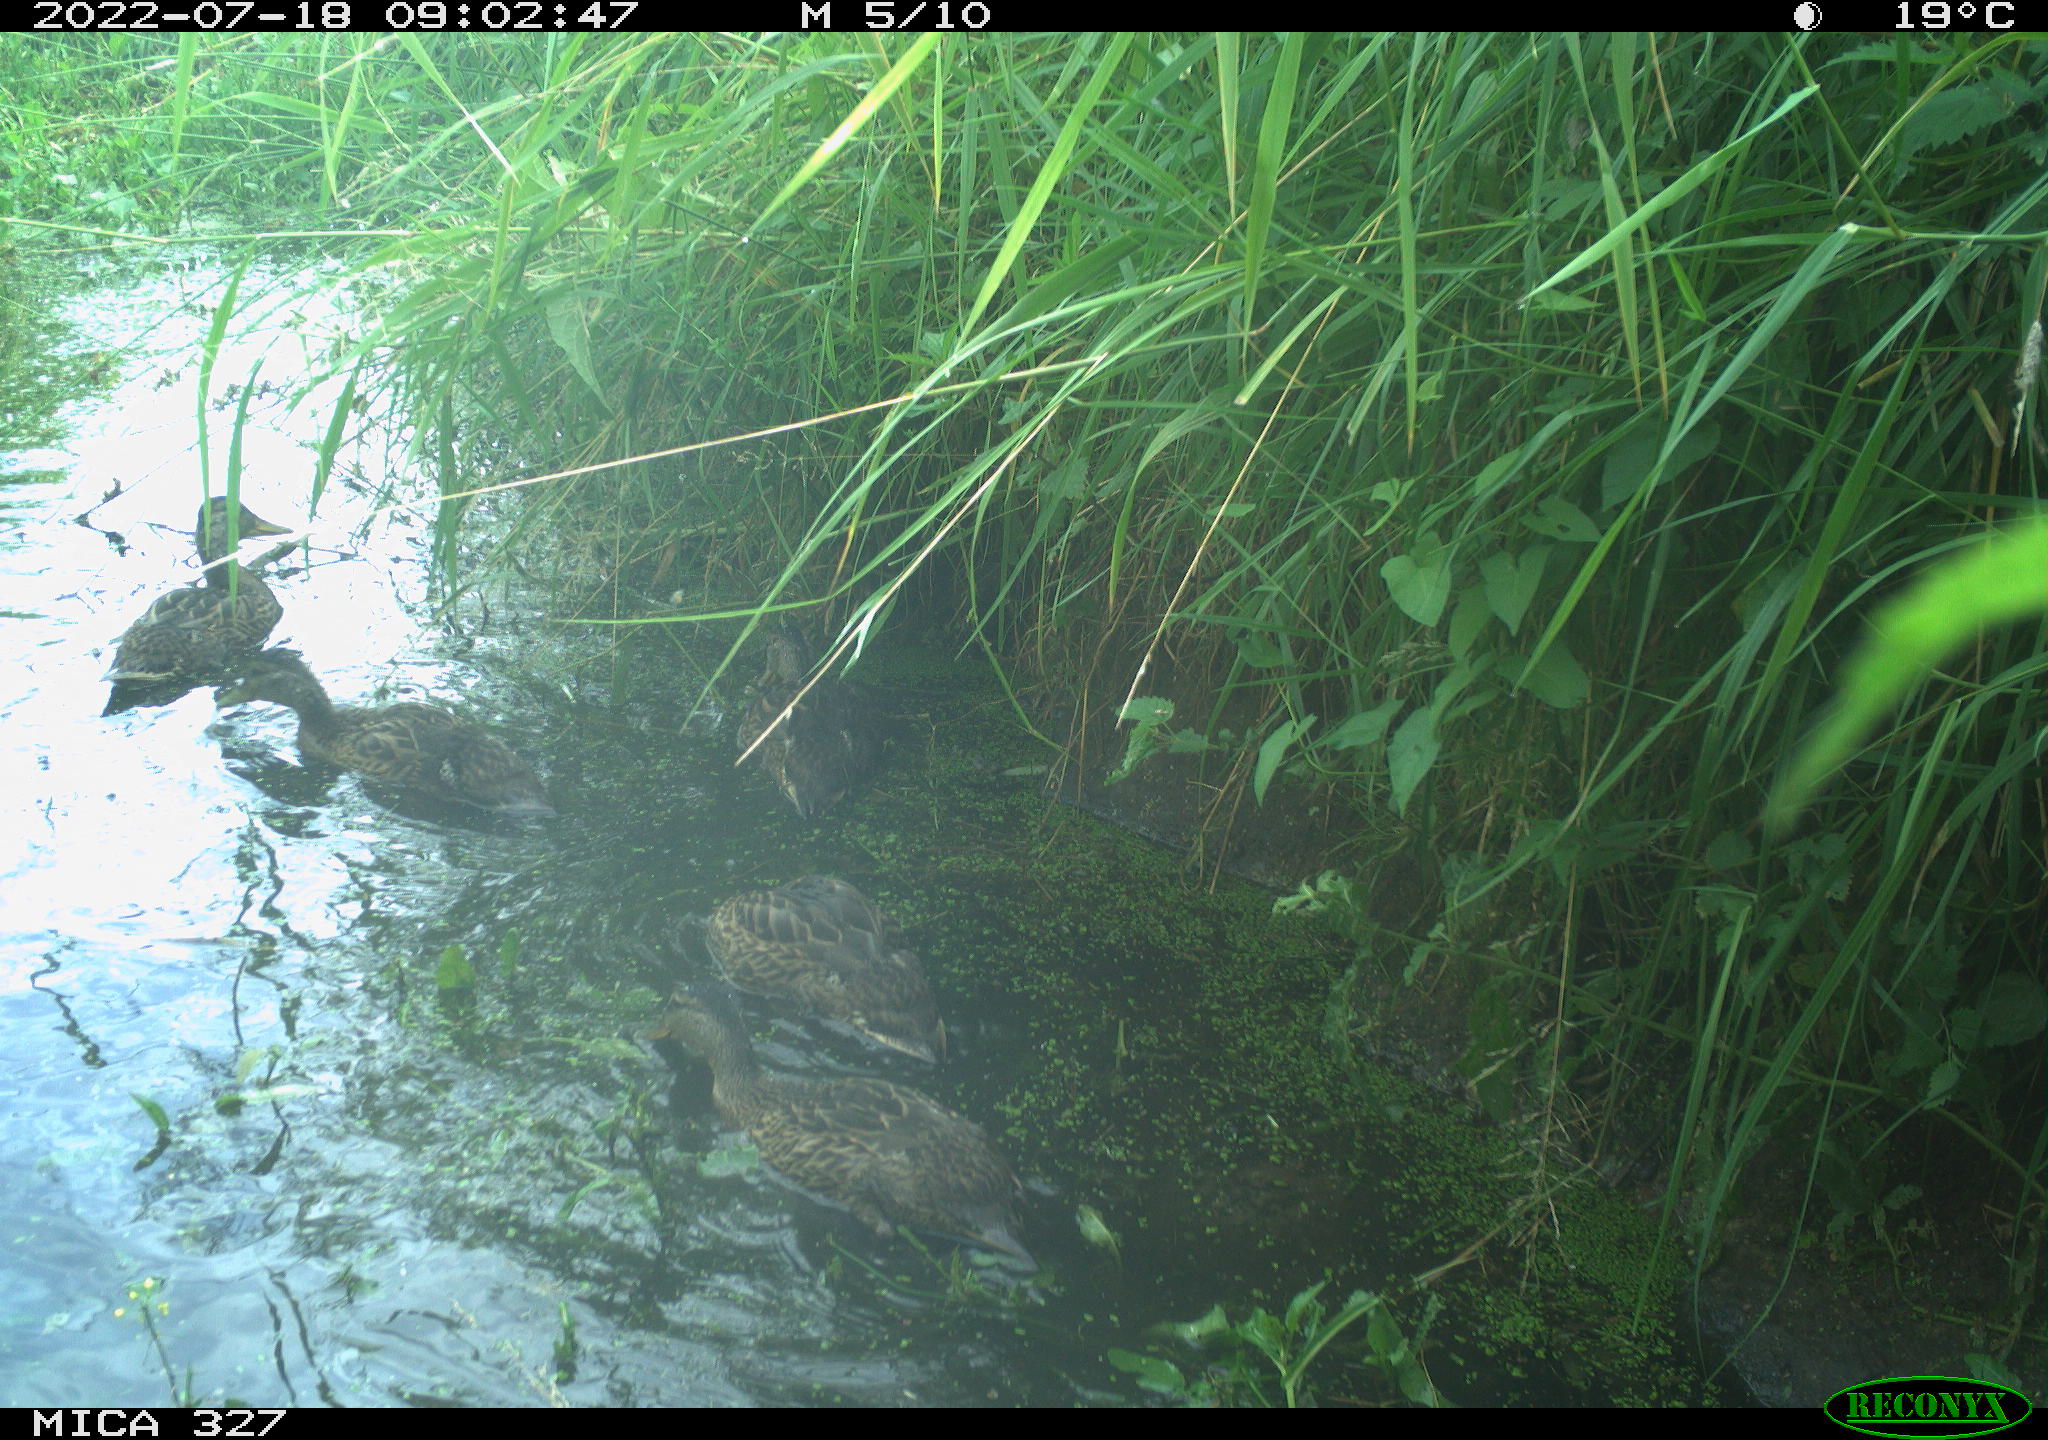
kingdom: Animalia
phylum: Chordata
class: Aves
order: Anseriformes
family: Anatidae
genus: Anas
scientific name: Anas
